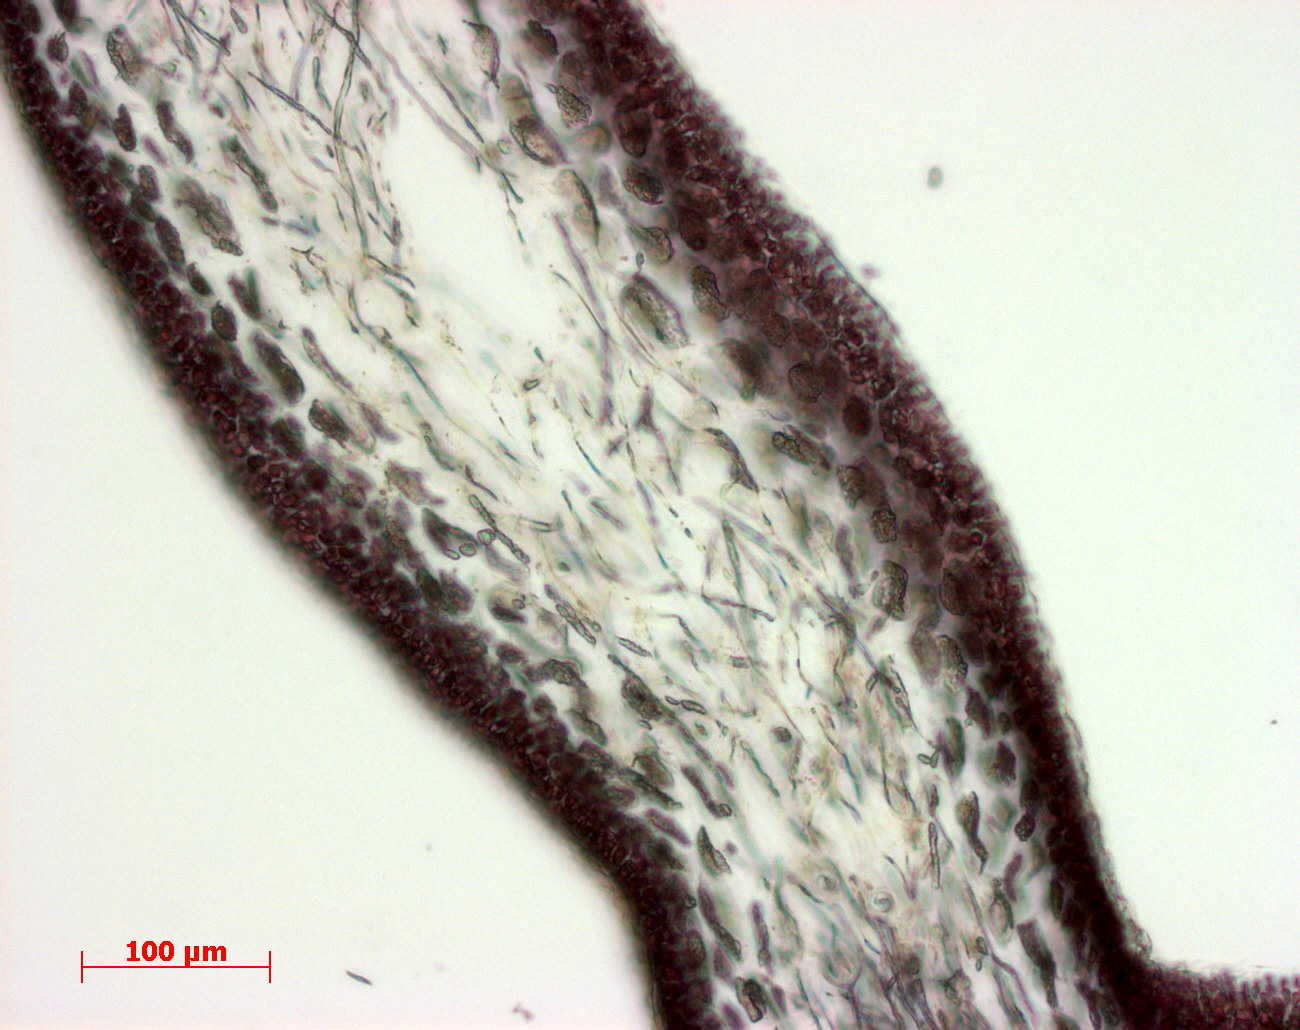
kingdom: Plantae
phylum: Rhodophyta
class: Florideophyceae
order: Gigartinales
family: Kallymeniaceae
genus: Psaromenia
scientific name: Psaromenia berggrenii
